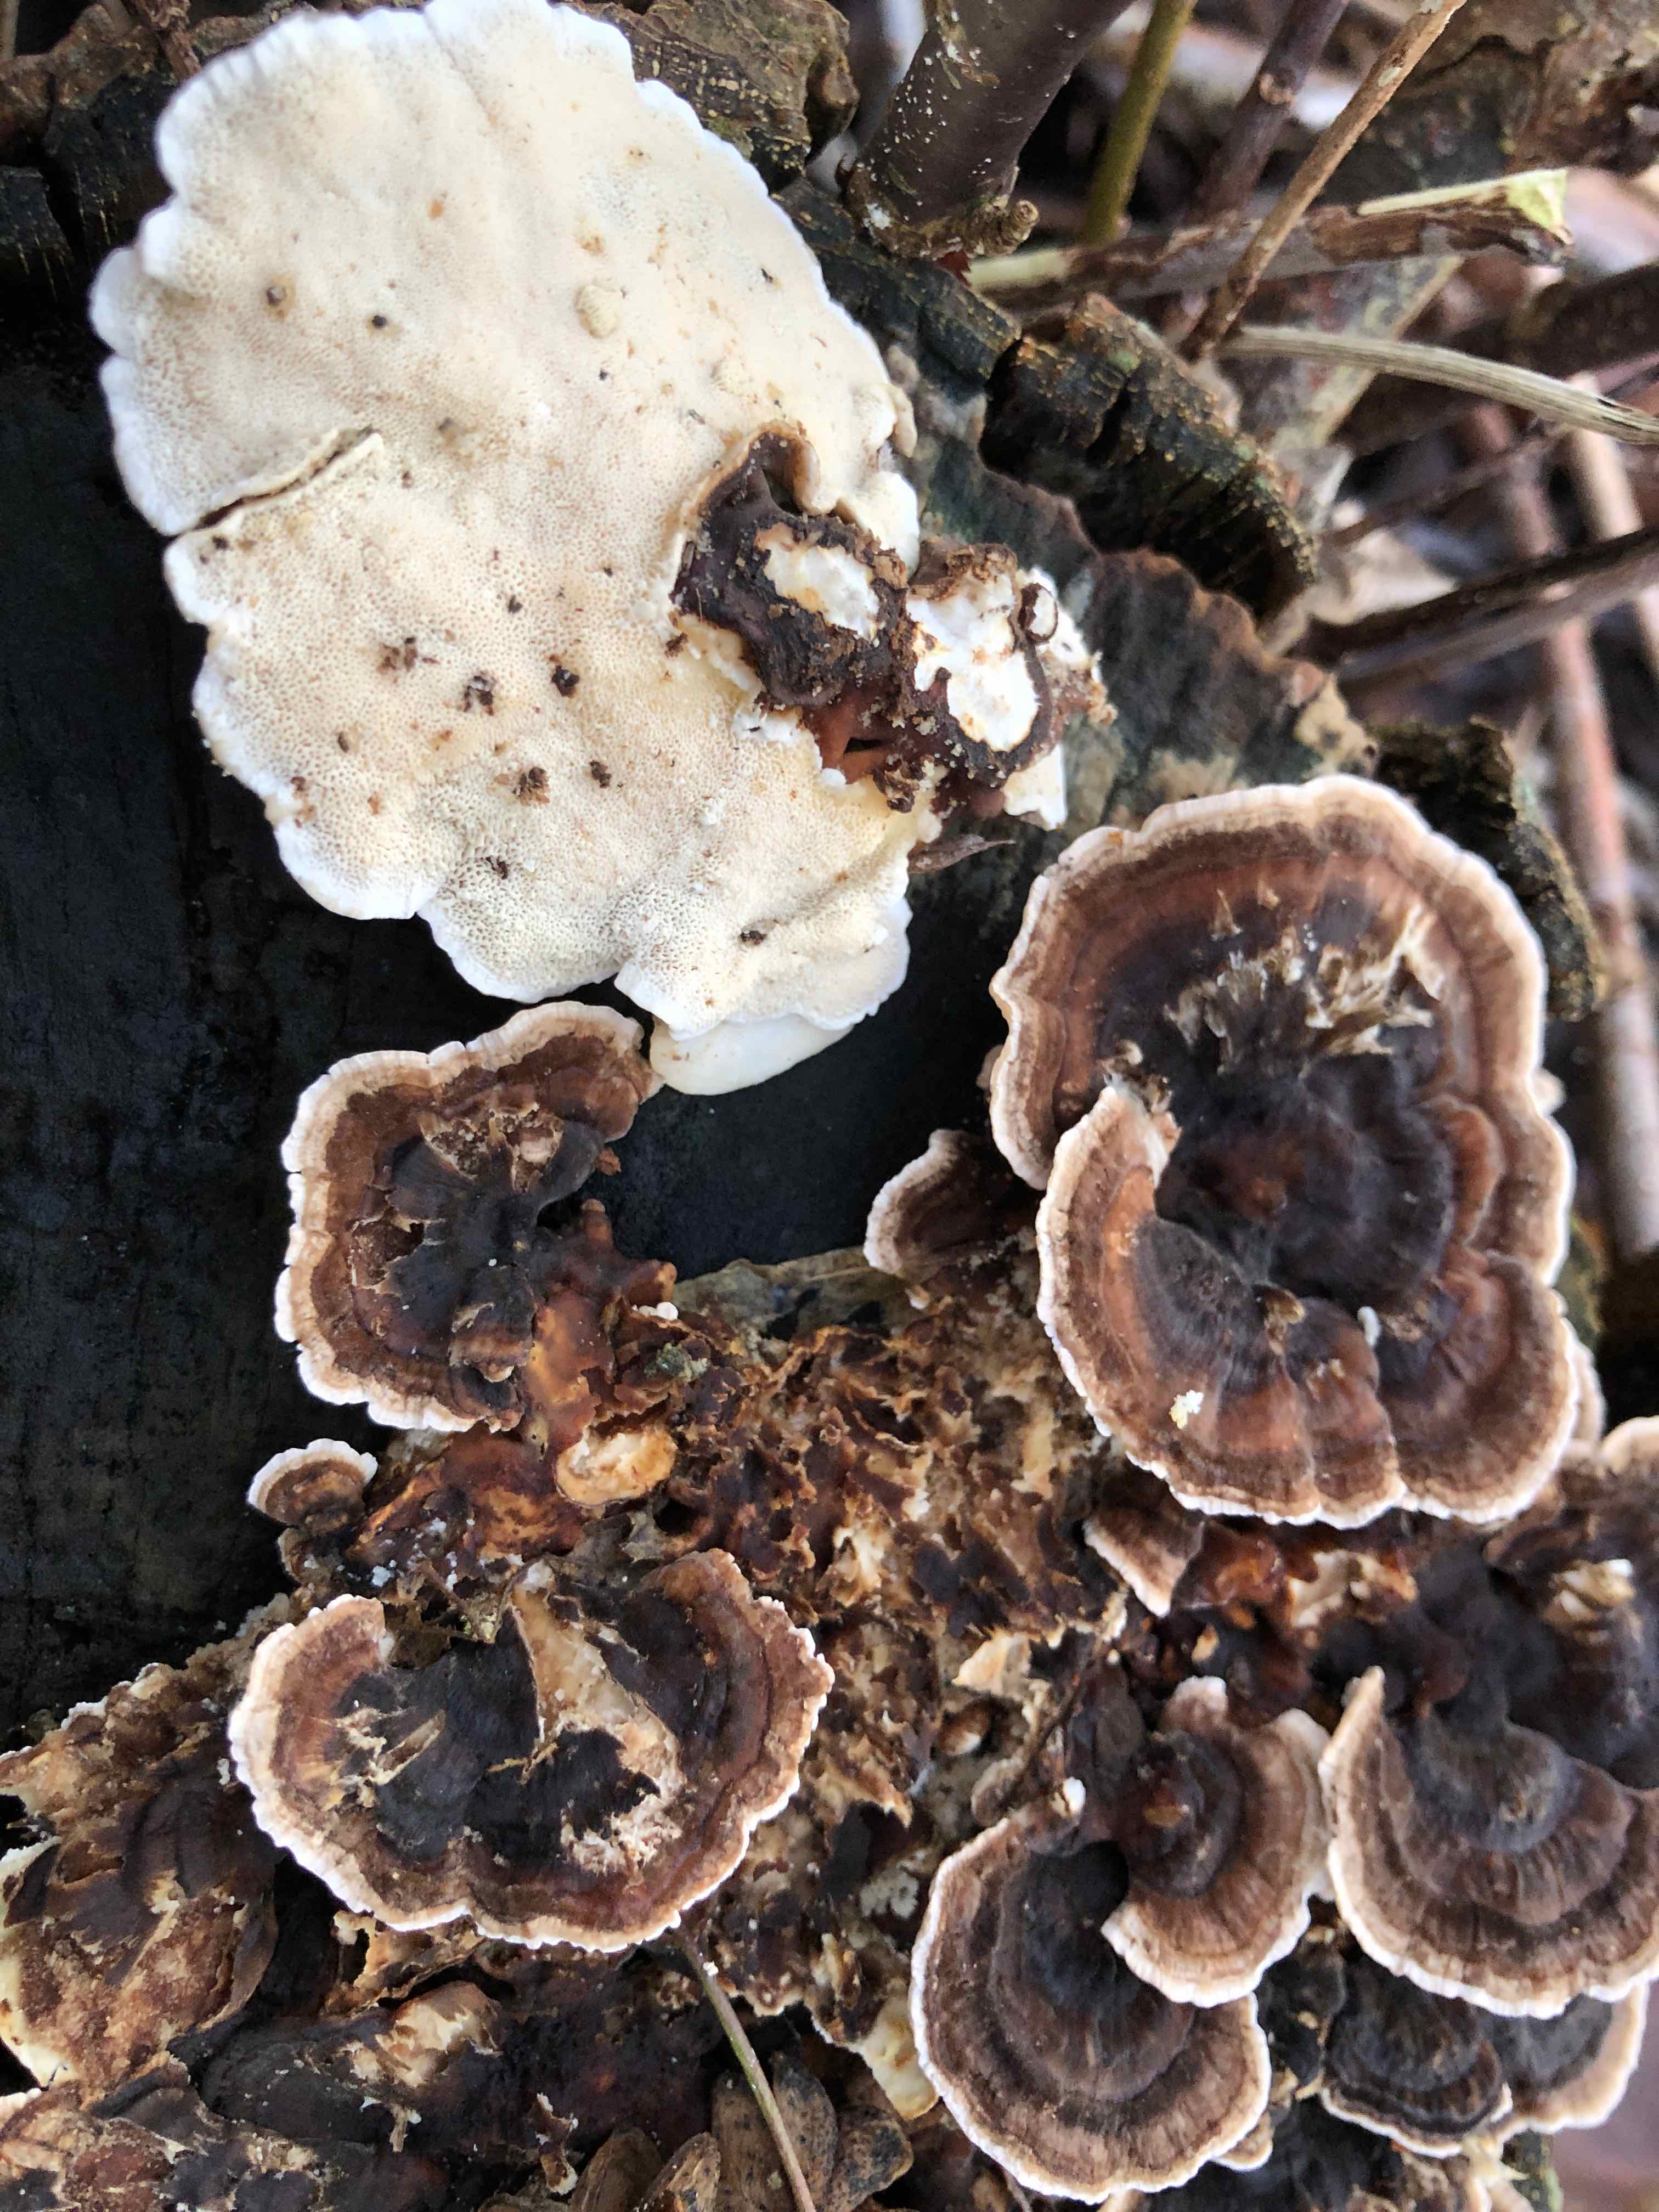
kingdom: Fungi
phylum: Basidiomycota
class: Agaricomycetes
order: Polyporales
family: Polyporaceae
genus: Trametes
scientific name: Trametes versicolor
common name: broget læderporesvamp
